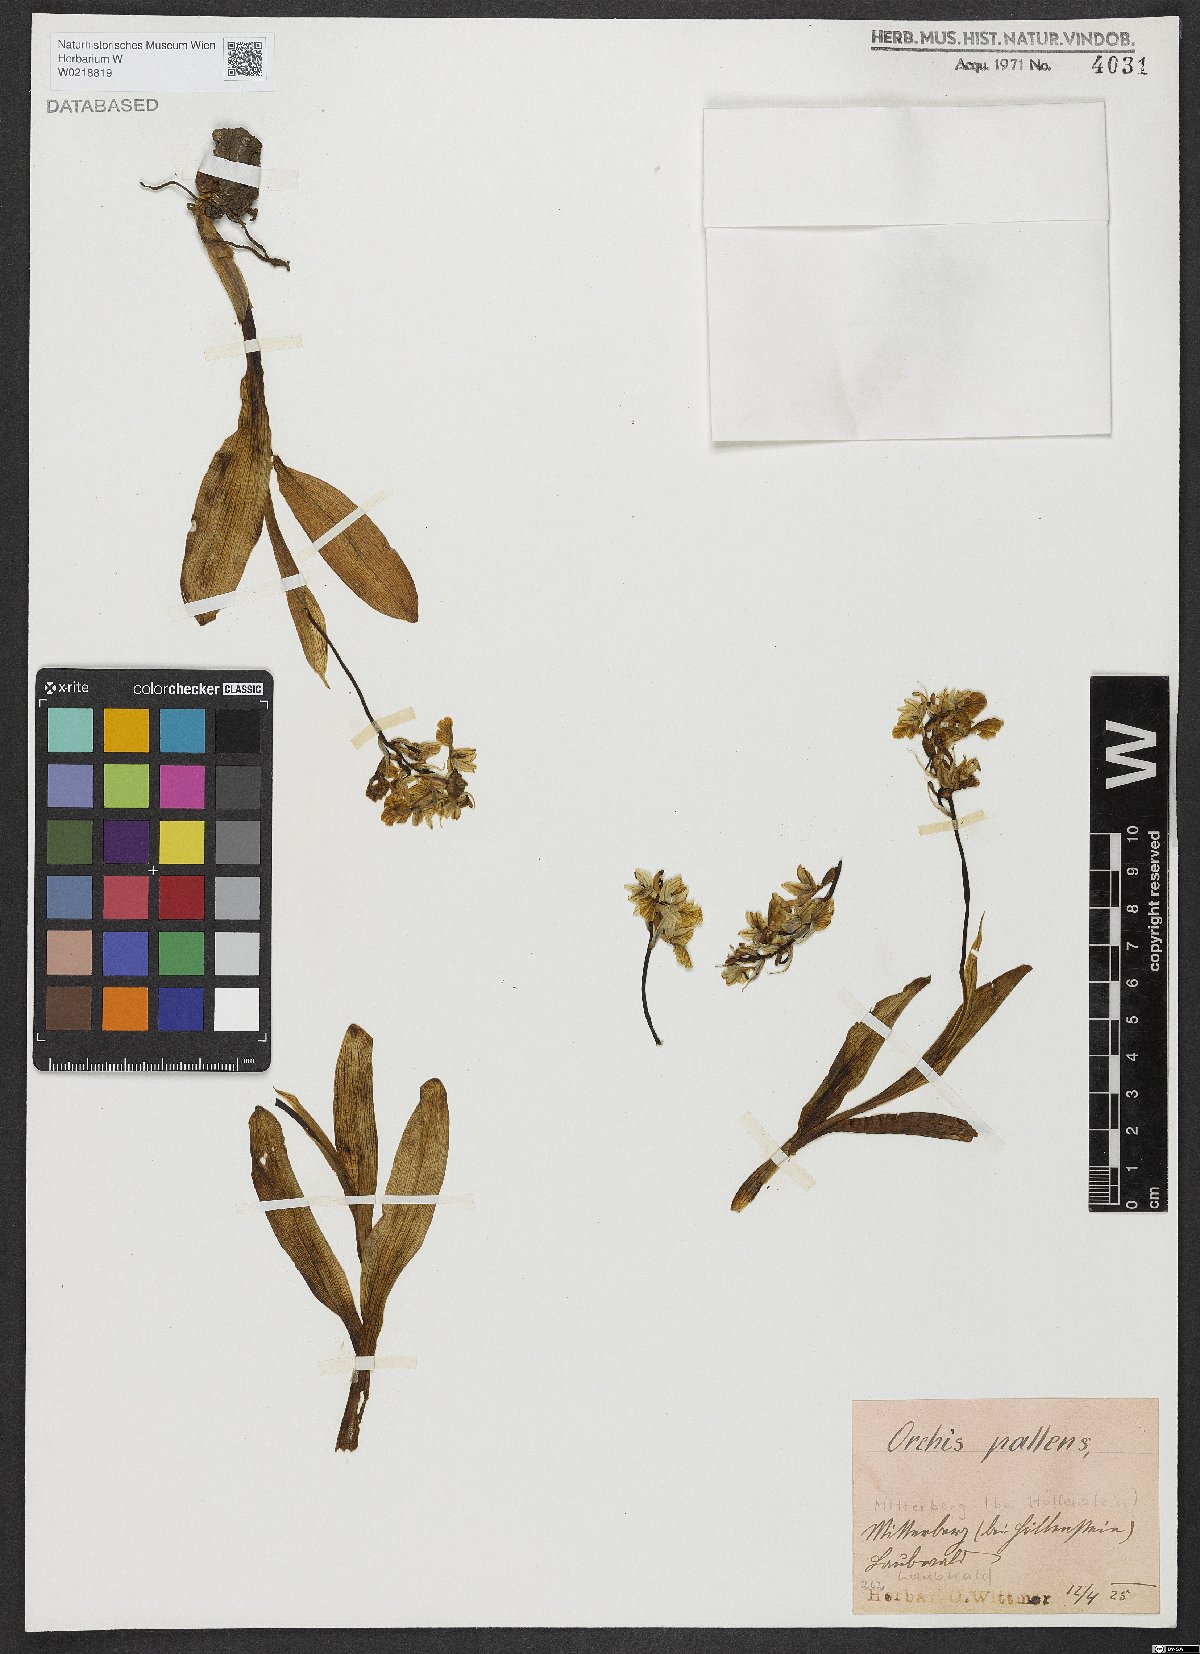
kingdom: Plantae
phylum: Tracheophyta
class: Liliopsida
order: Asparagales
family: Orchidaceae
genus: Orchis
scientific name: Orchis pallens
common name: Pale-flowered orchid
